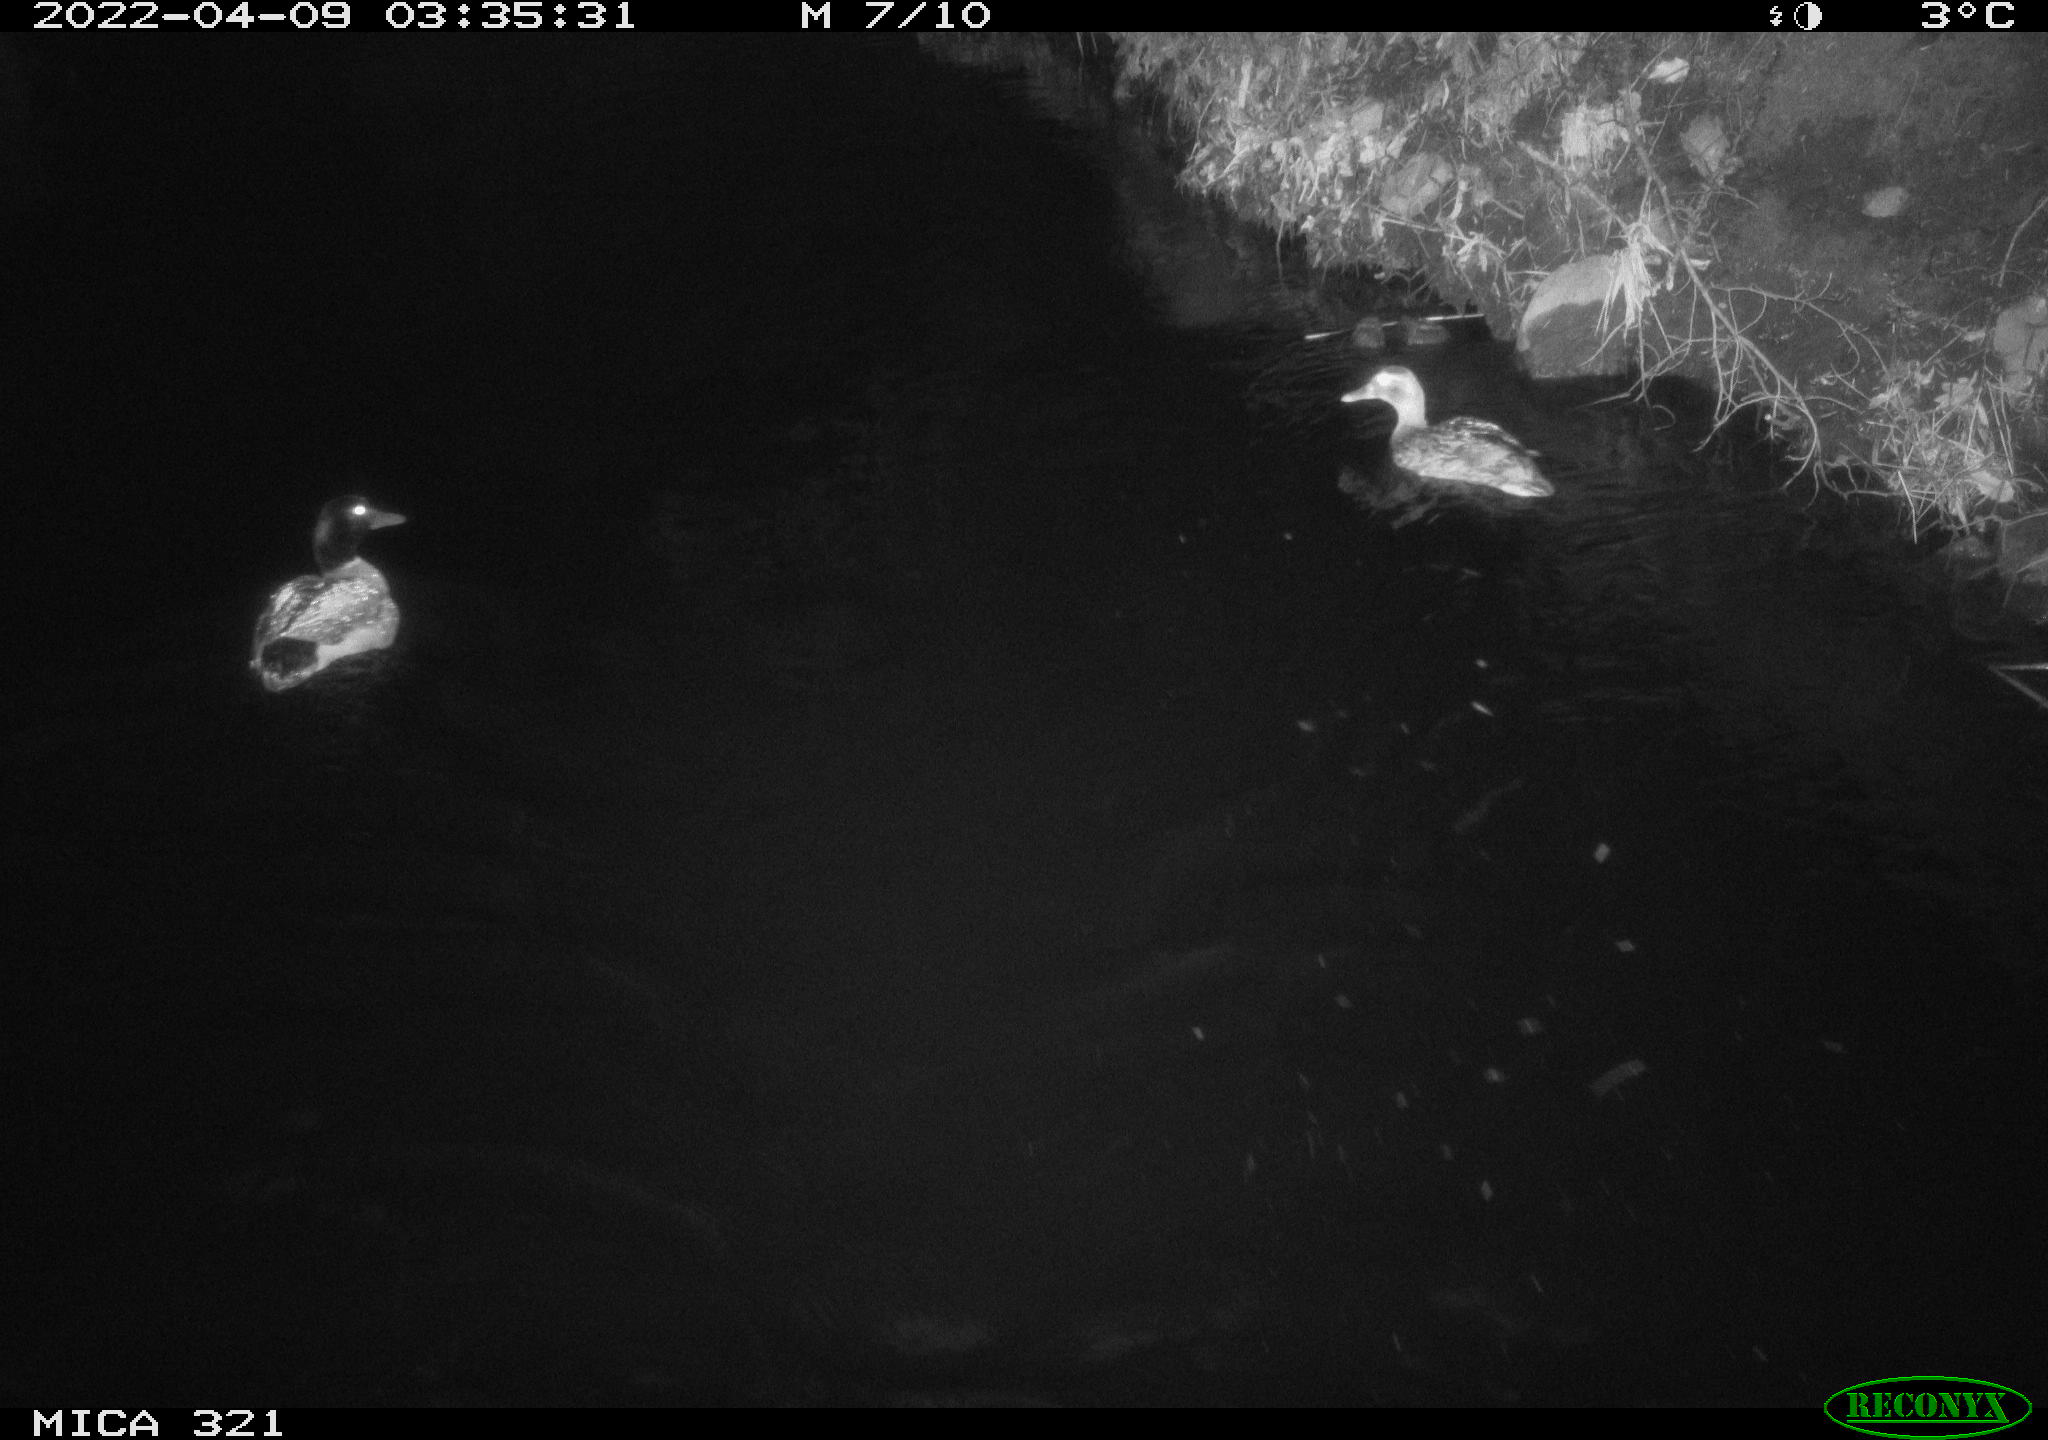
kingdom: Animalia
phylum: Chordata
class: Aves
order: Anseriformes
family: Anatidae
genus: Anas
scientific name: Anas platyrhynchos
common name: Mallard
